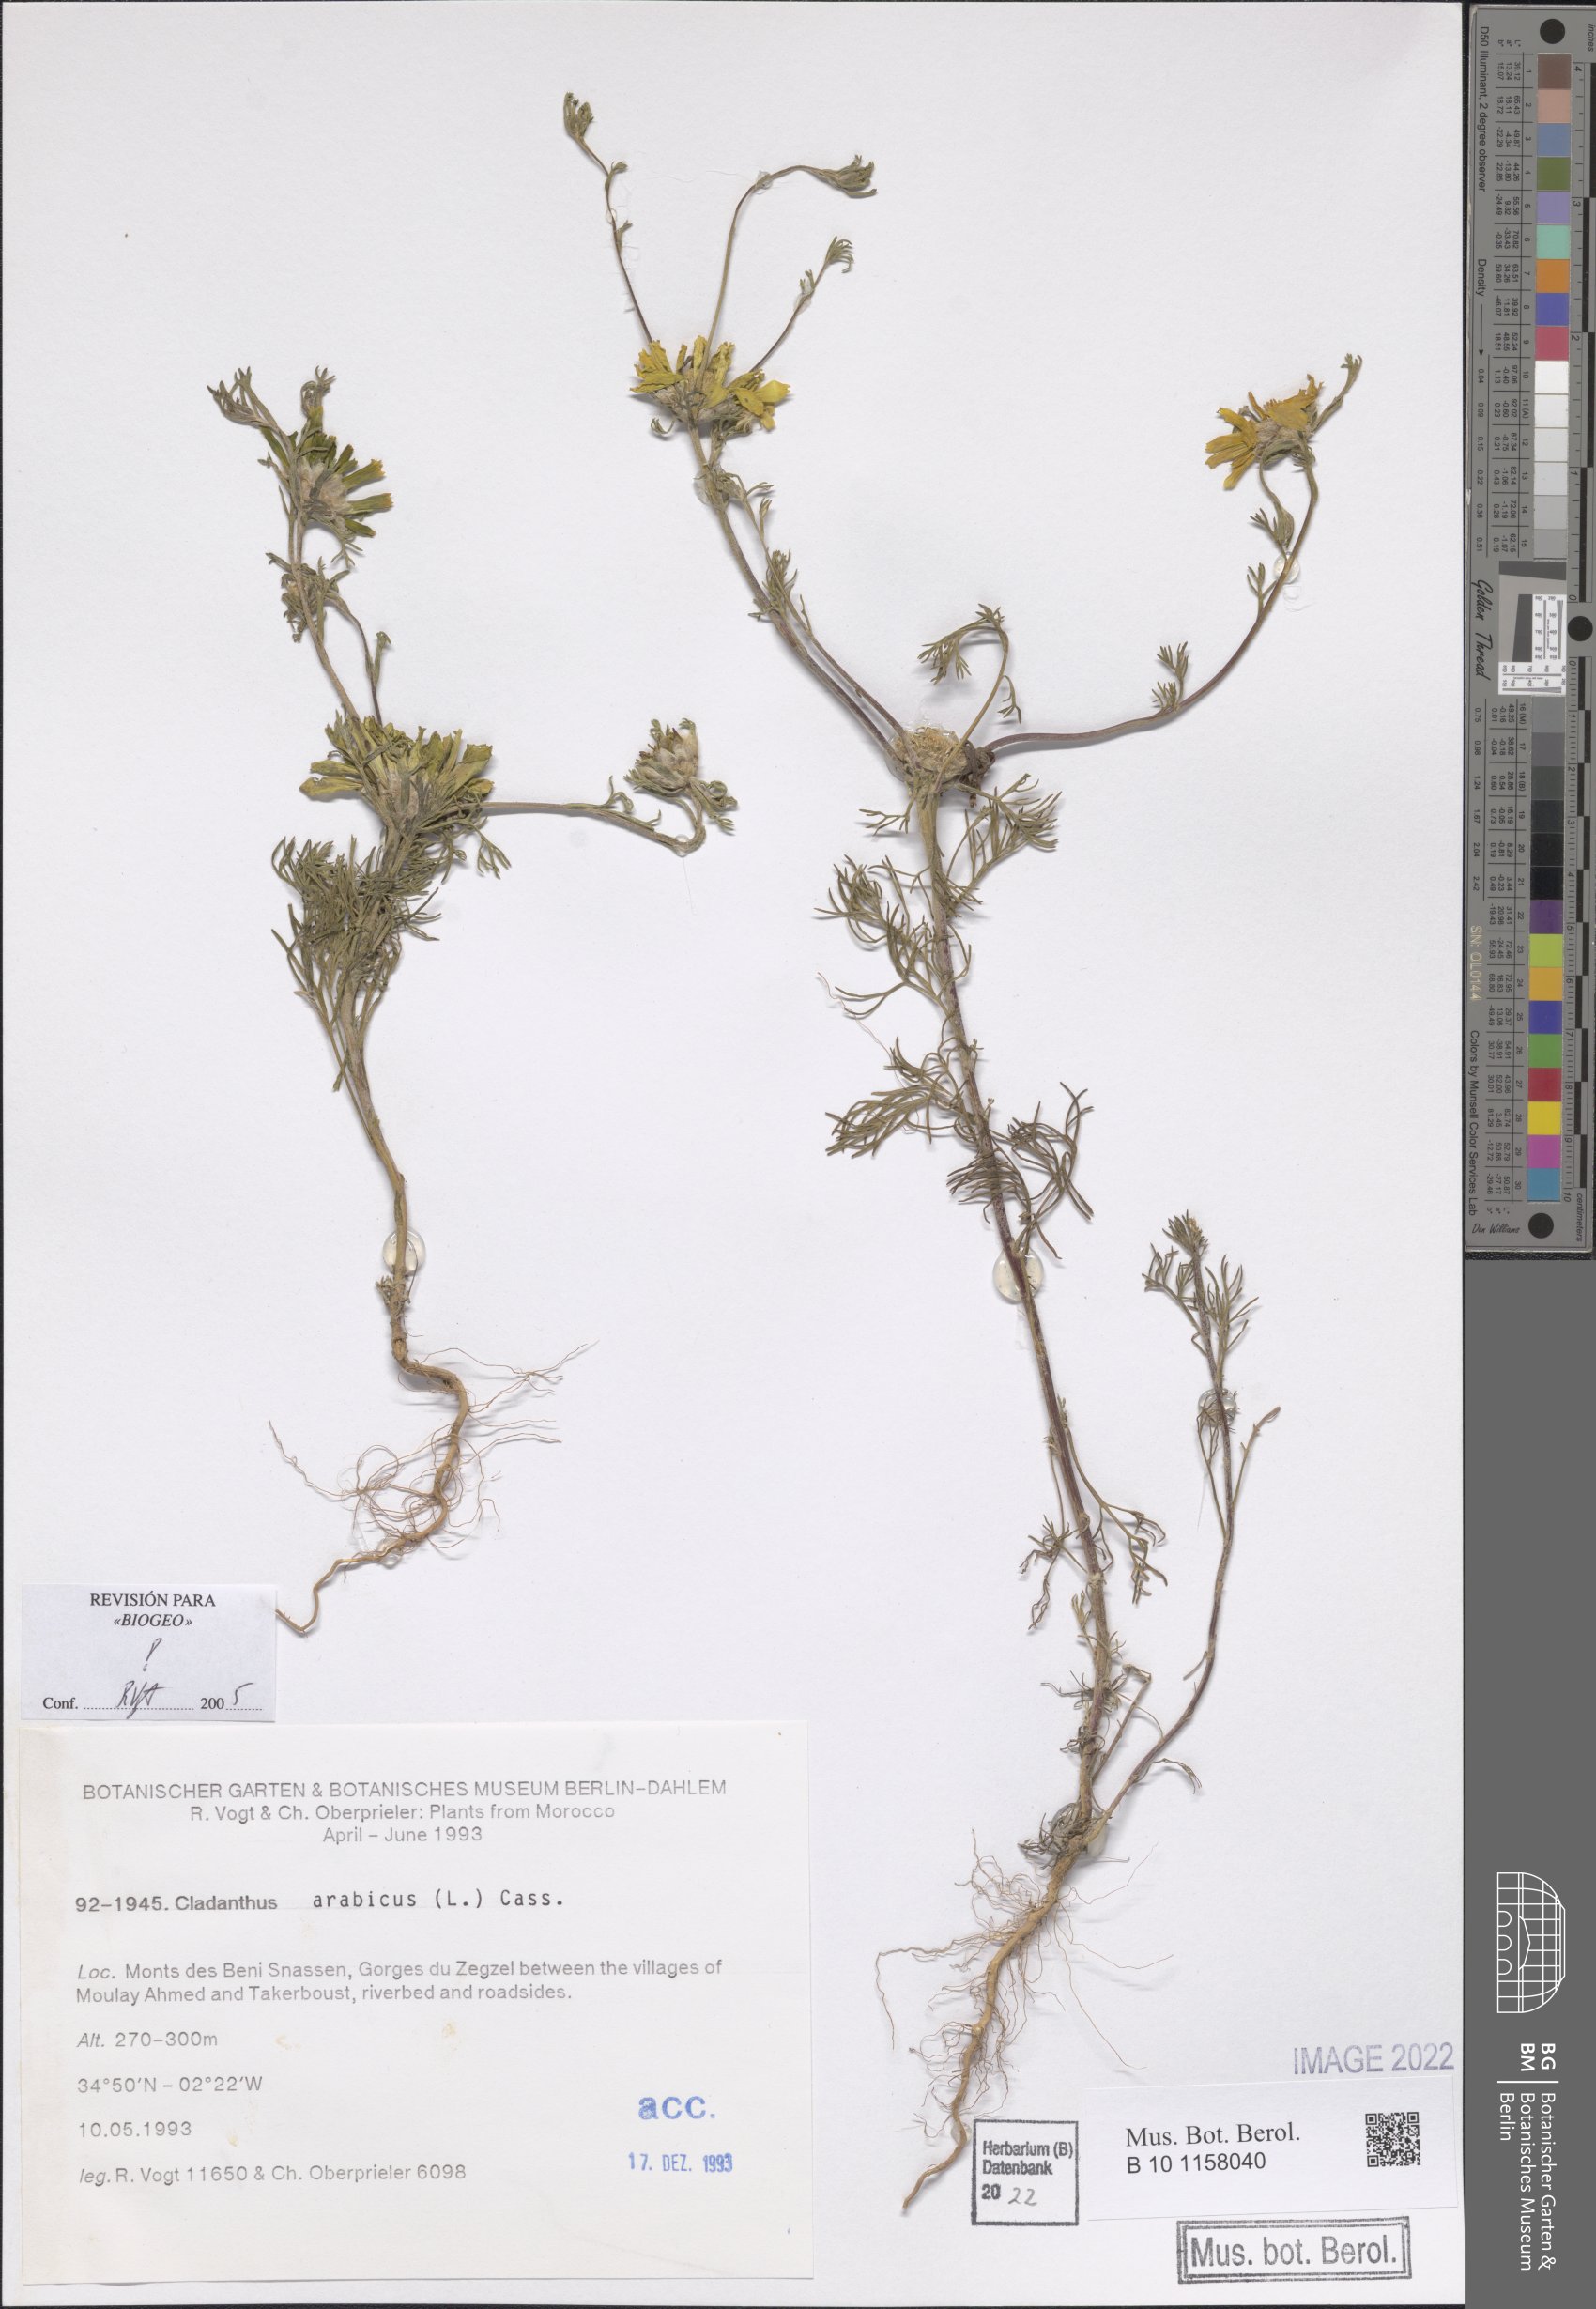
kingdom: Plantae
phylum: Tracheophyta
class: Magnoliopsida
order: Asterales
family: Asteraceae
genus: Cladanthus
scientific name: Cladanthus arabicus
